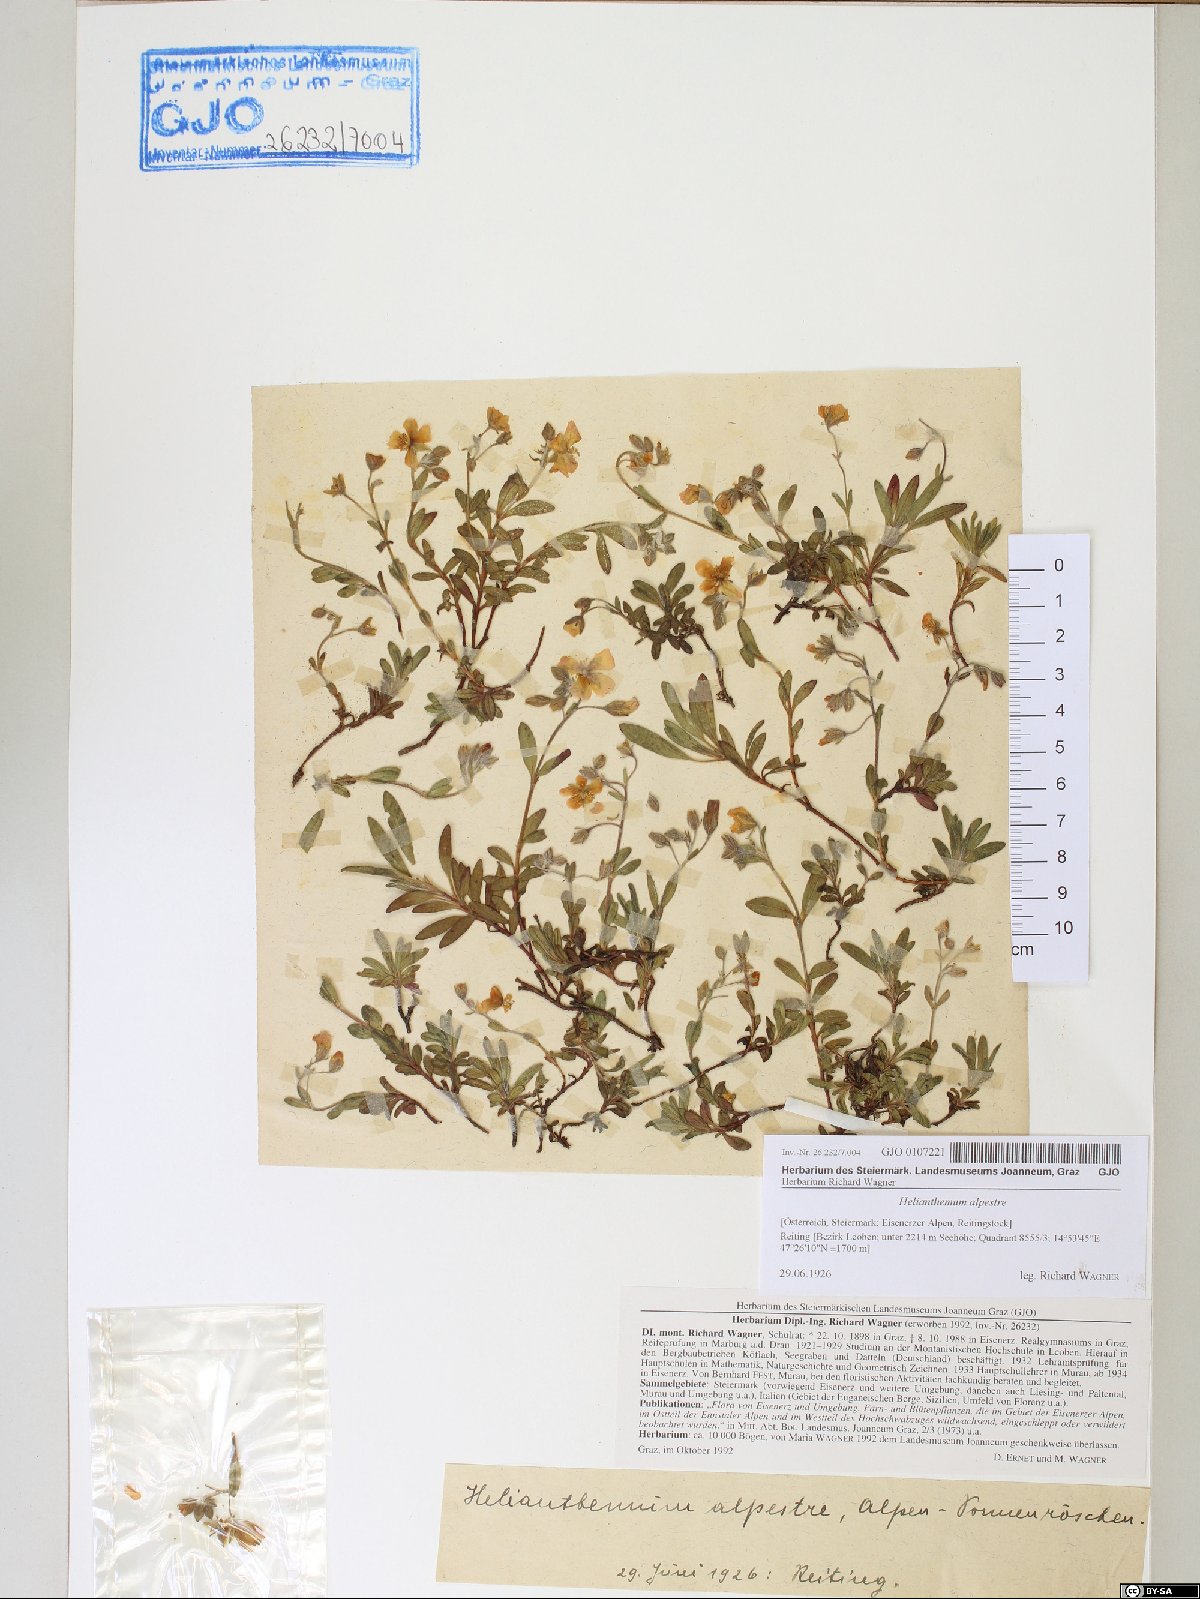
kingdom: Plantae
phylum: Tracheophyta
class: Magnoliopsida
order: Malvales
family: Cistaceae
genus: Helianthemum
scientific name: Helianthemum alpestre
